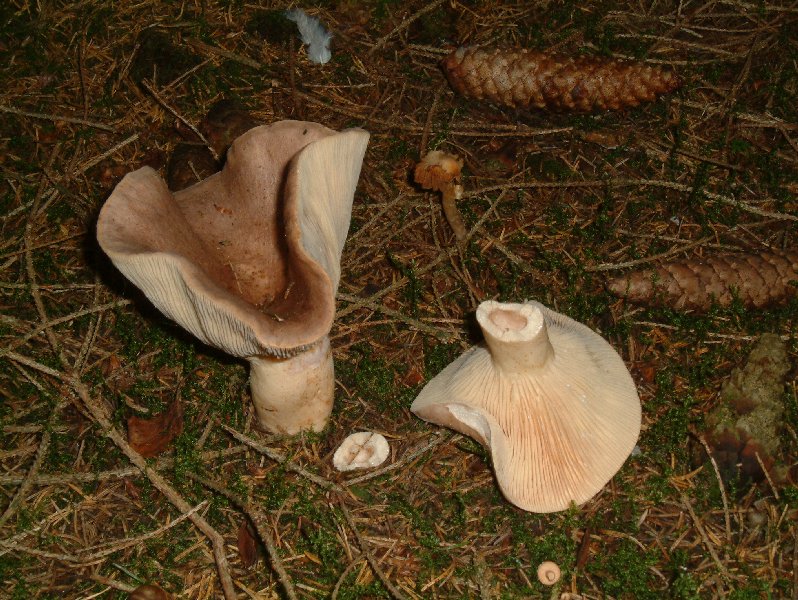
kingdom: Fungi
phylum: Basidiomycota
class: Agaricomycetes
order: Russulales
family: Russulaceae
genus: Lactarius
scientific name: Lactarius trivialis
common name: nordisk mælkehat
